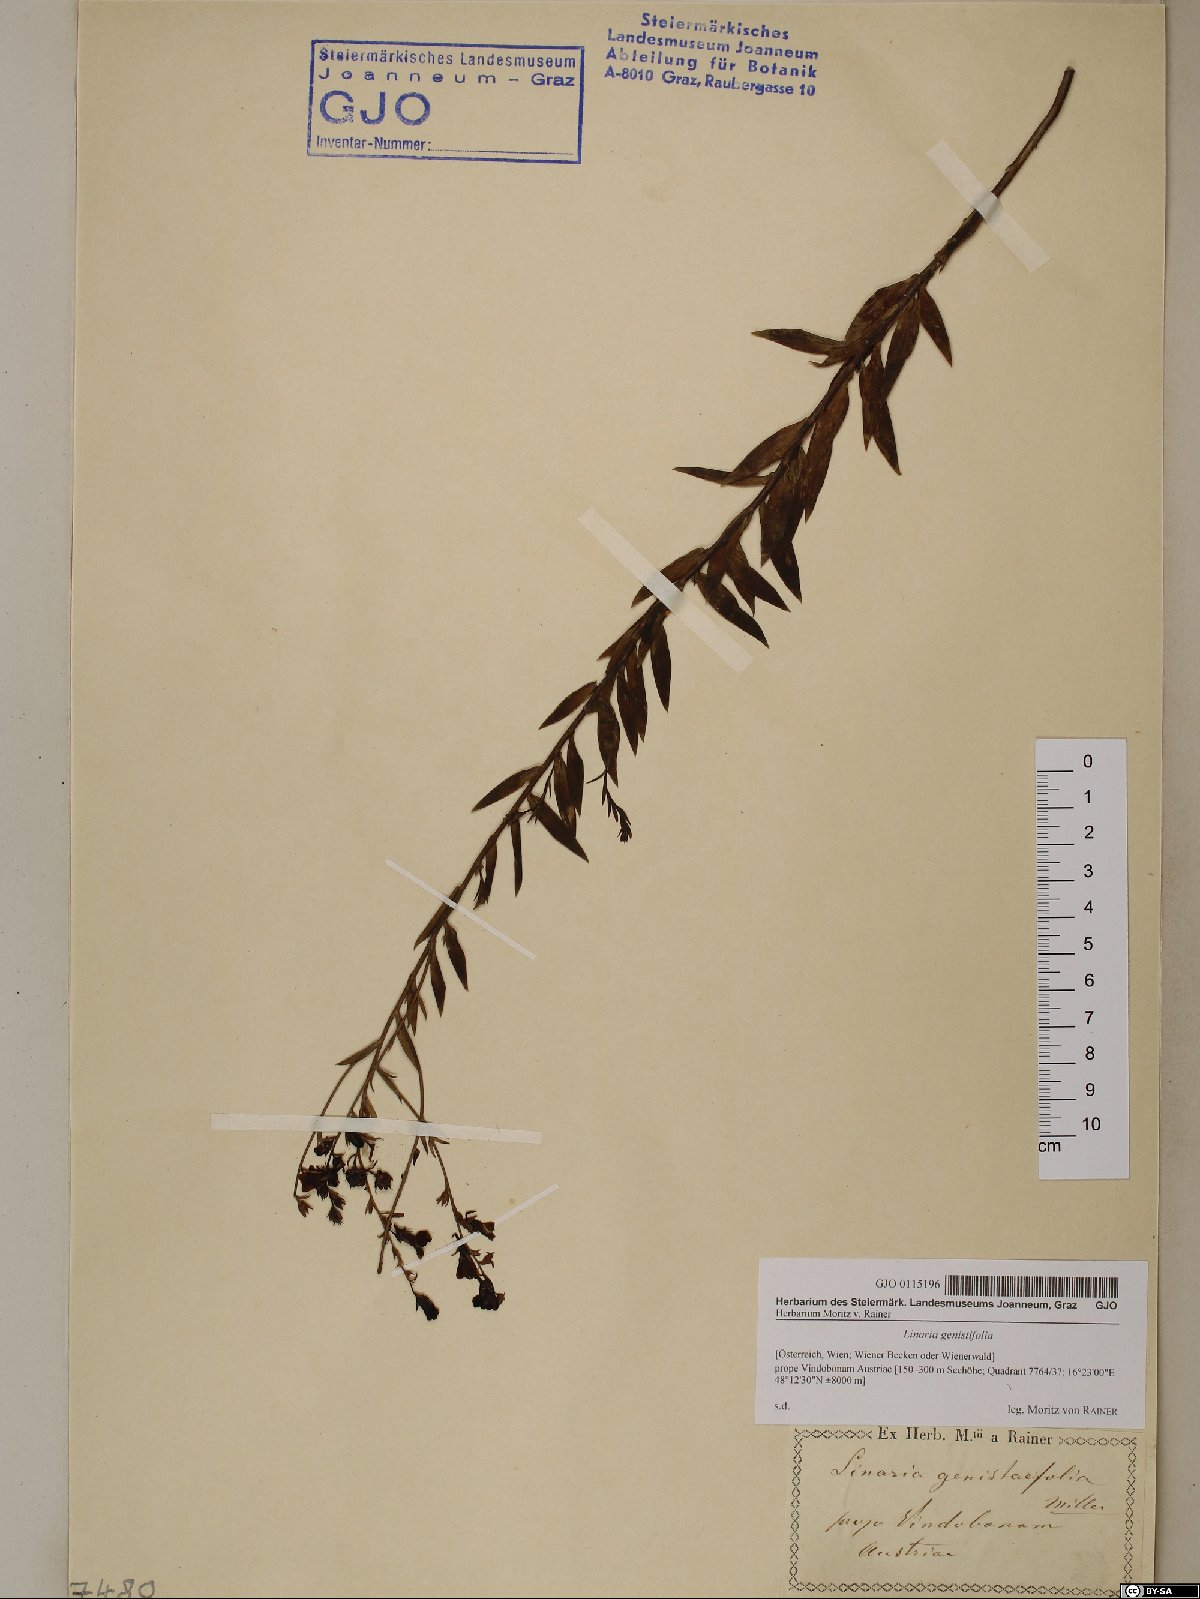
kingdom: Plantae
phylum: Tracheophyta
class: Magnoliopsida
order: Lamiales
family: Plantaginaceae
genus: Linaria
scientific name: Linaria genistifolia
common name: Broomleaf toadflax
